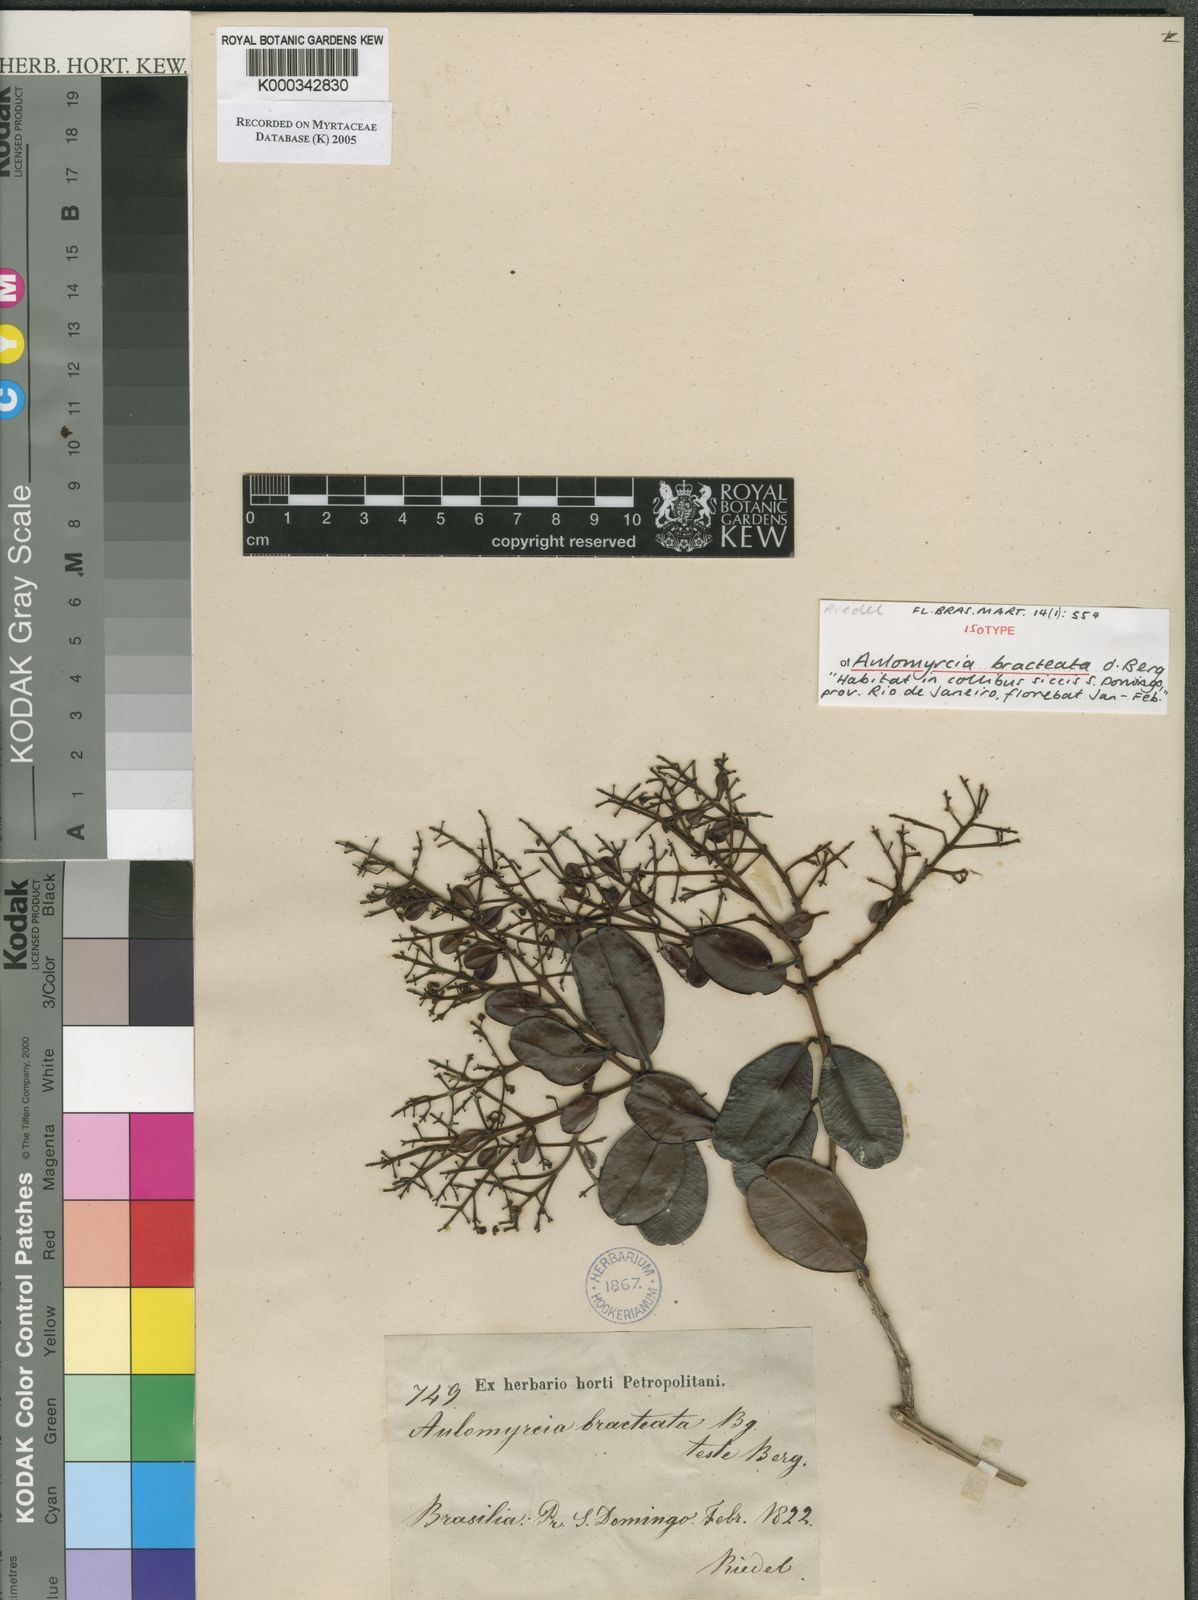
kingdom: Plantae
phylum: Tracheophyta
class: Magnoliopsida
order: Myrtales
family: Myrtaceae
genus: Myrcia
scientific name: Myrcia didrichseniana
